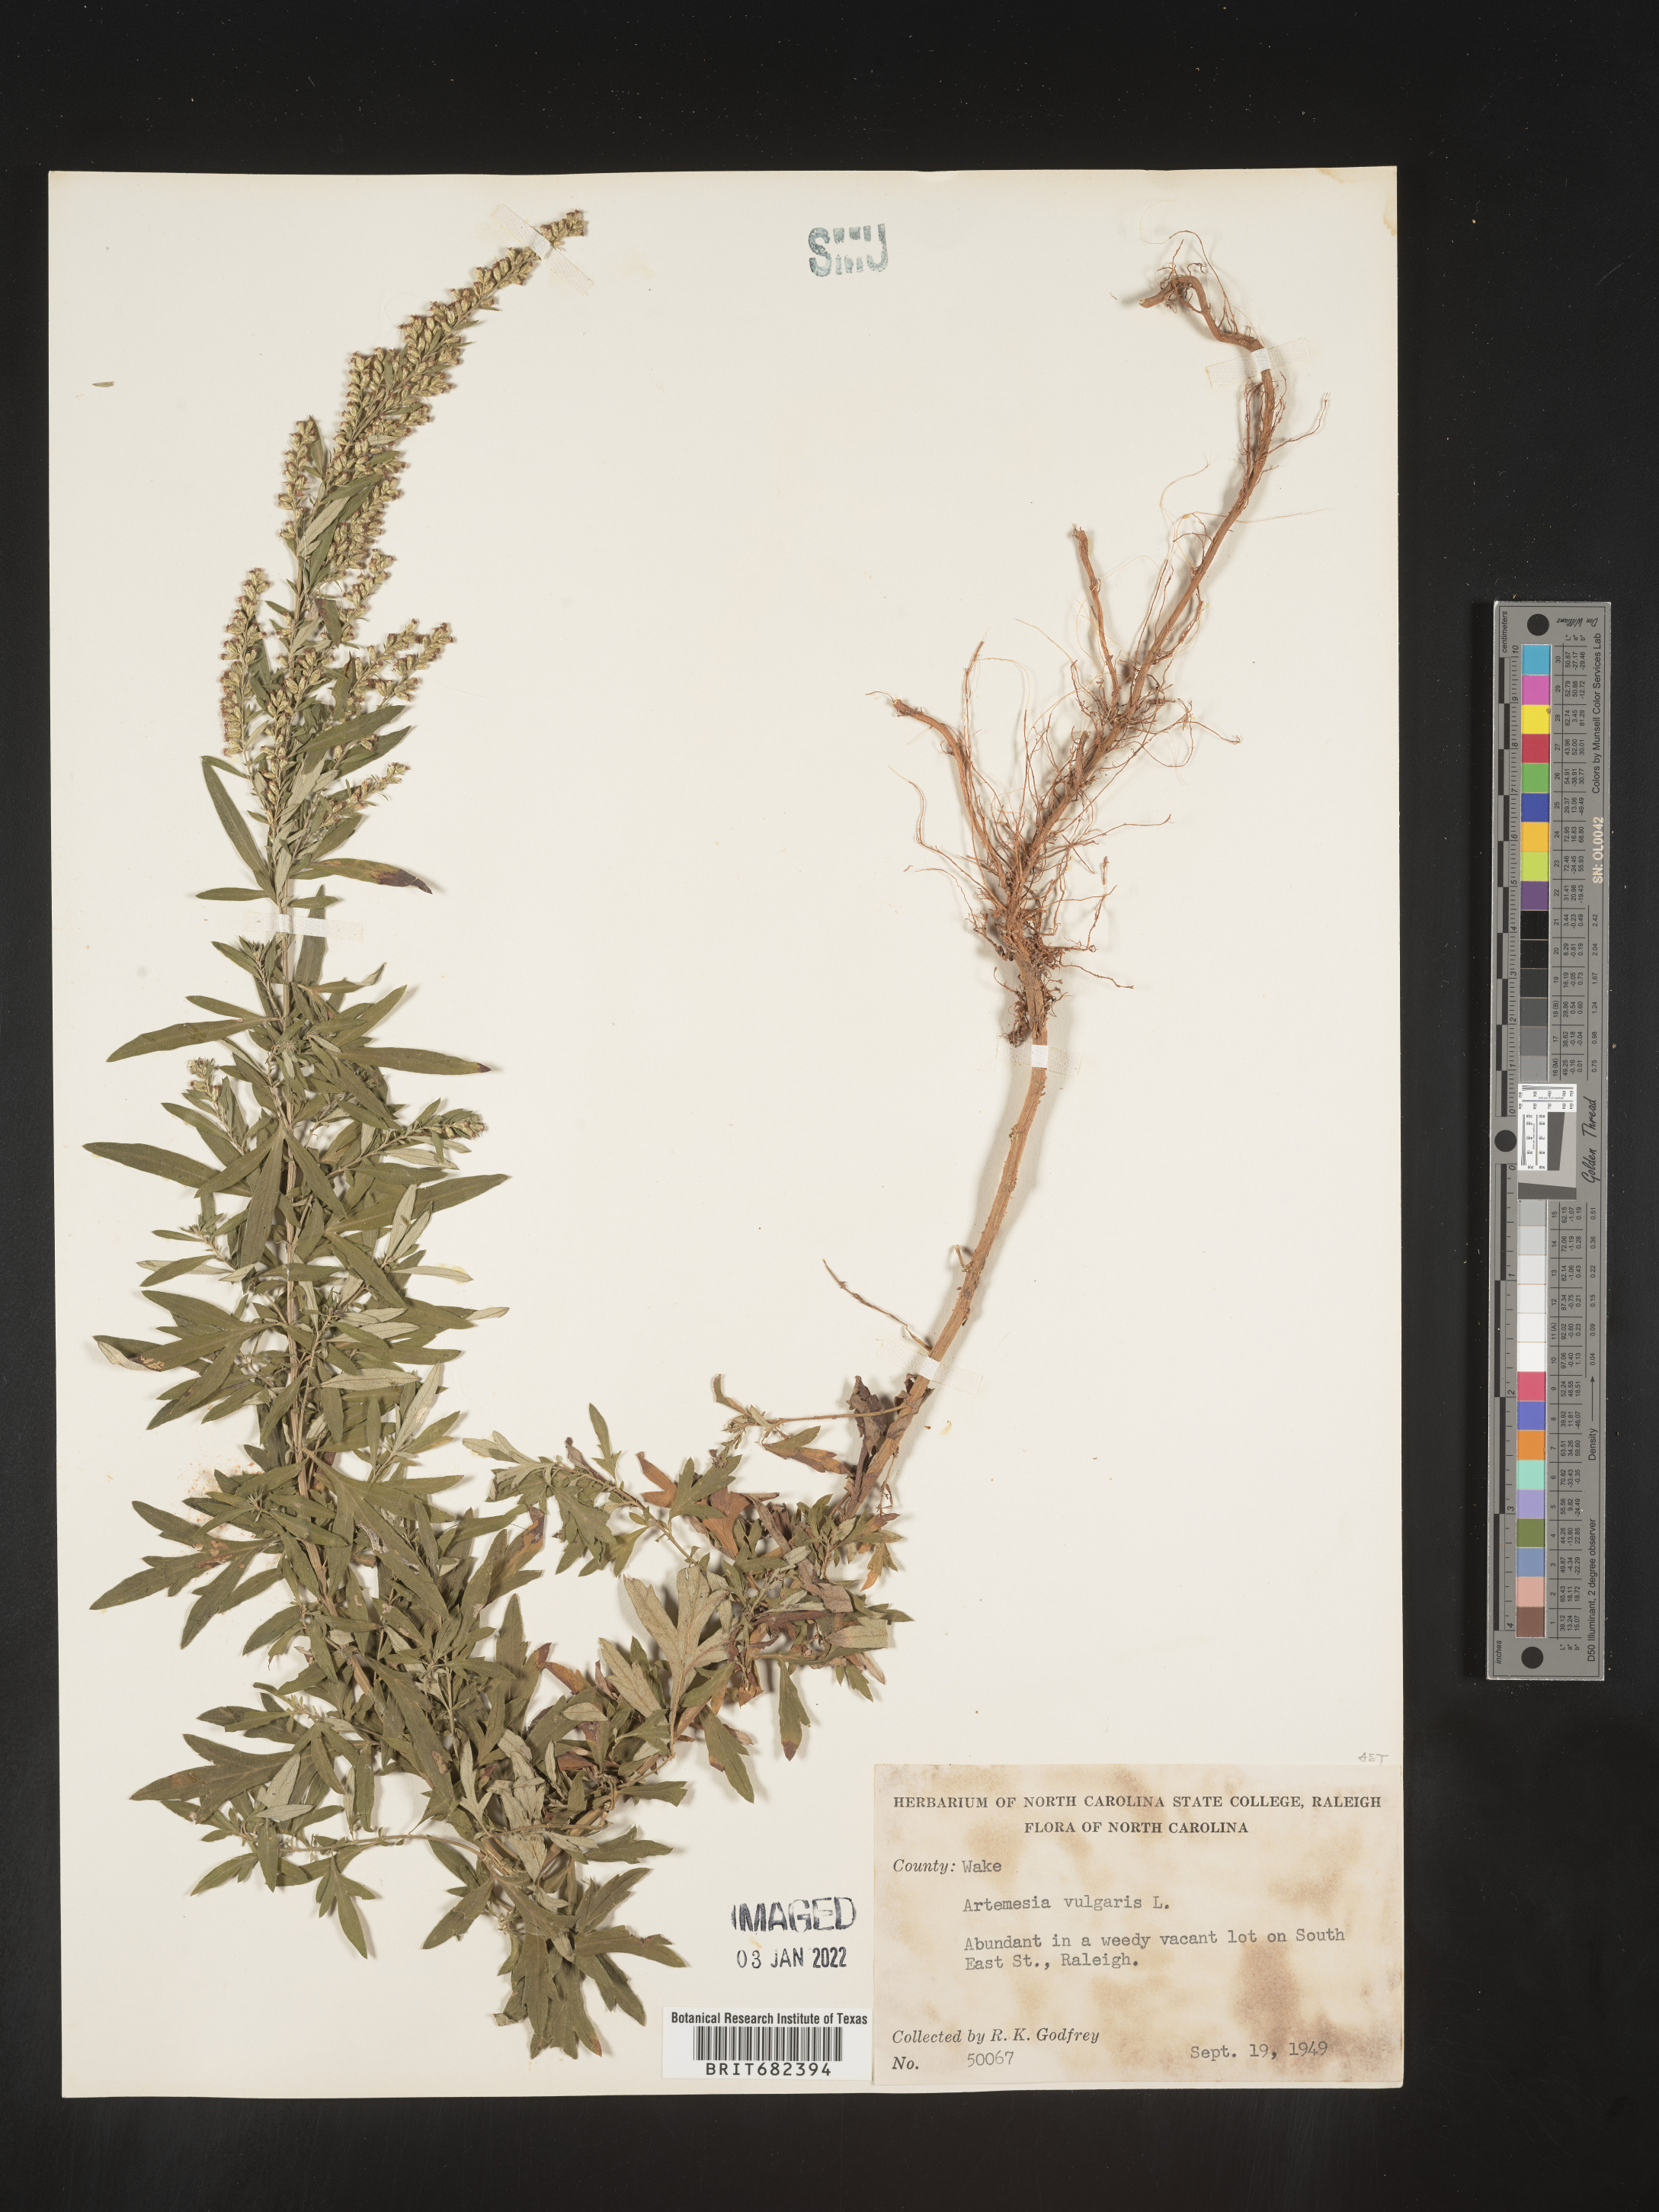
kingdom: Plantae
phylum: Tracheophyta
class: Magnoliopsida
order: Asterales
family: Asteraceae
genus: Artemisia
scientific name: Artemisia vulgaris
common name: Mugwort
